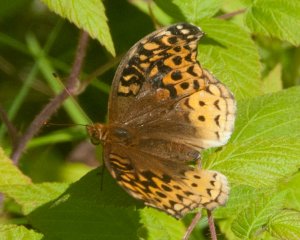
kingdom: Animalia
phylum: Arthropoda
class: Insecta
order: Lepidoptera
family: Nymphalidae
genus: Speyeria
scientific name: Speyeria cybele
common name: Great Spangled Fritillary
